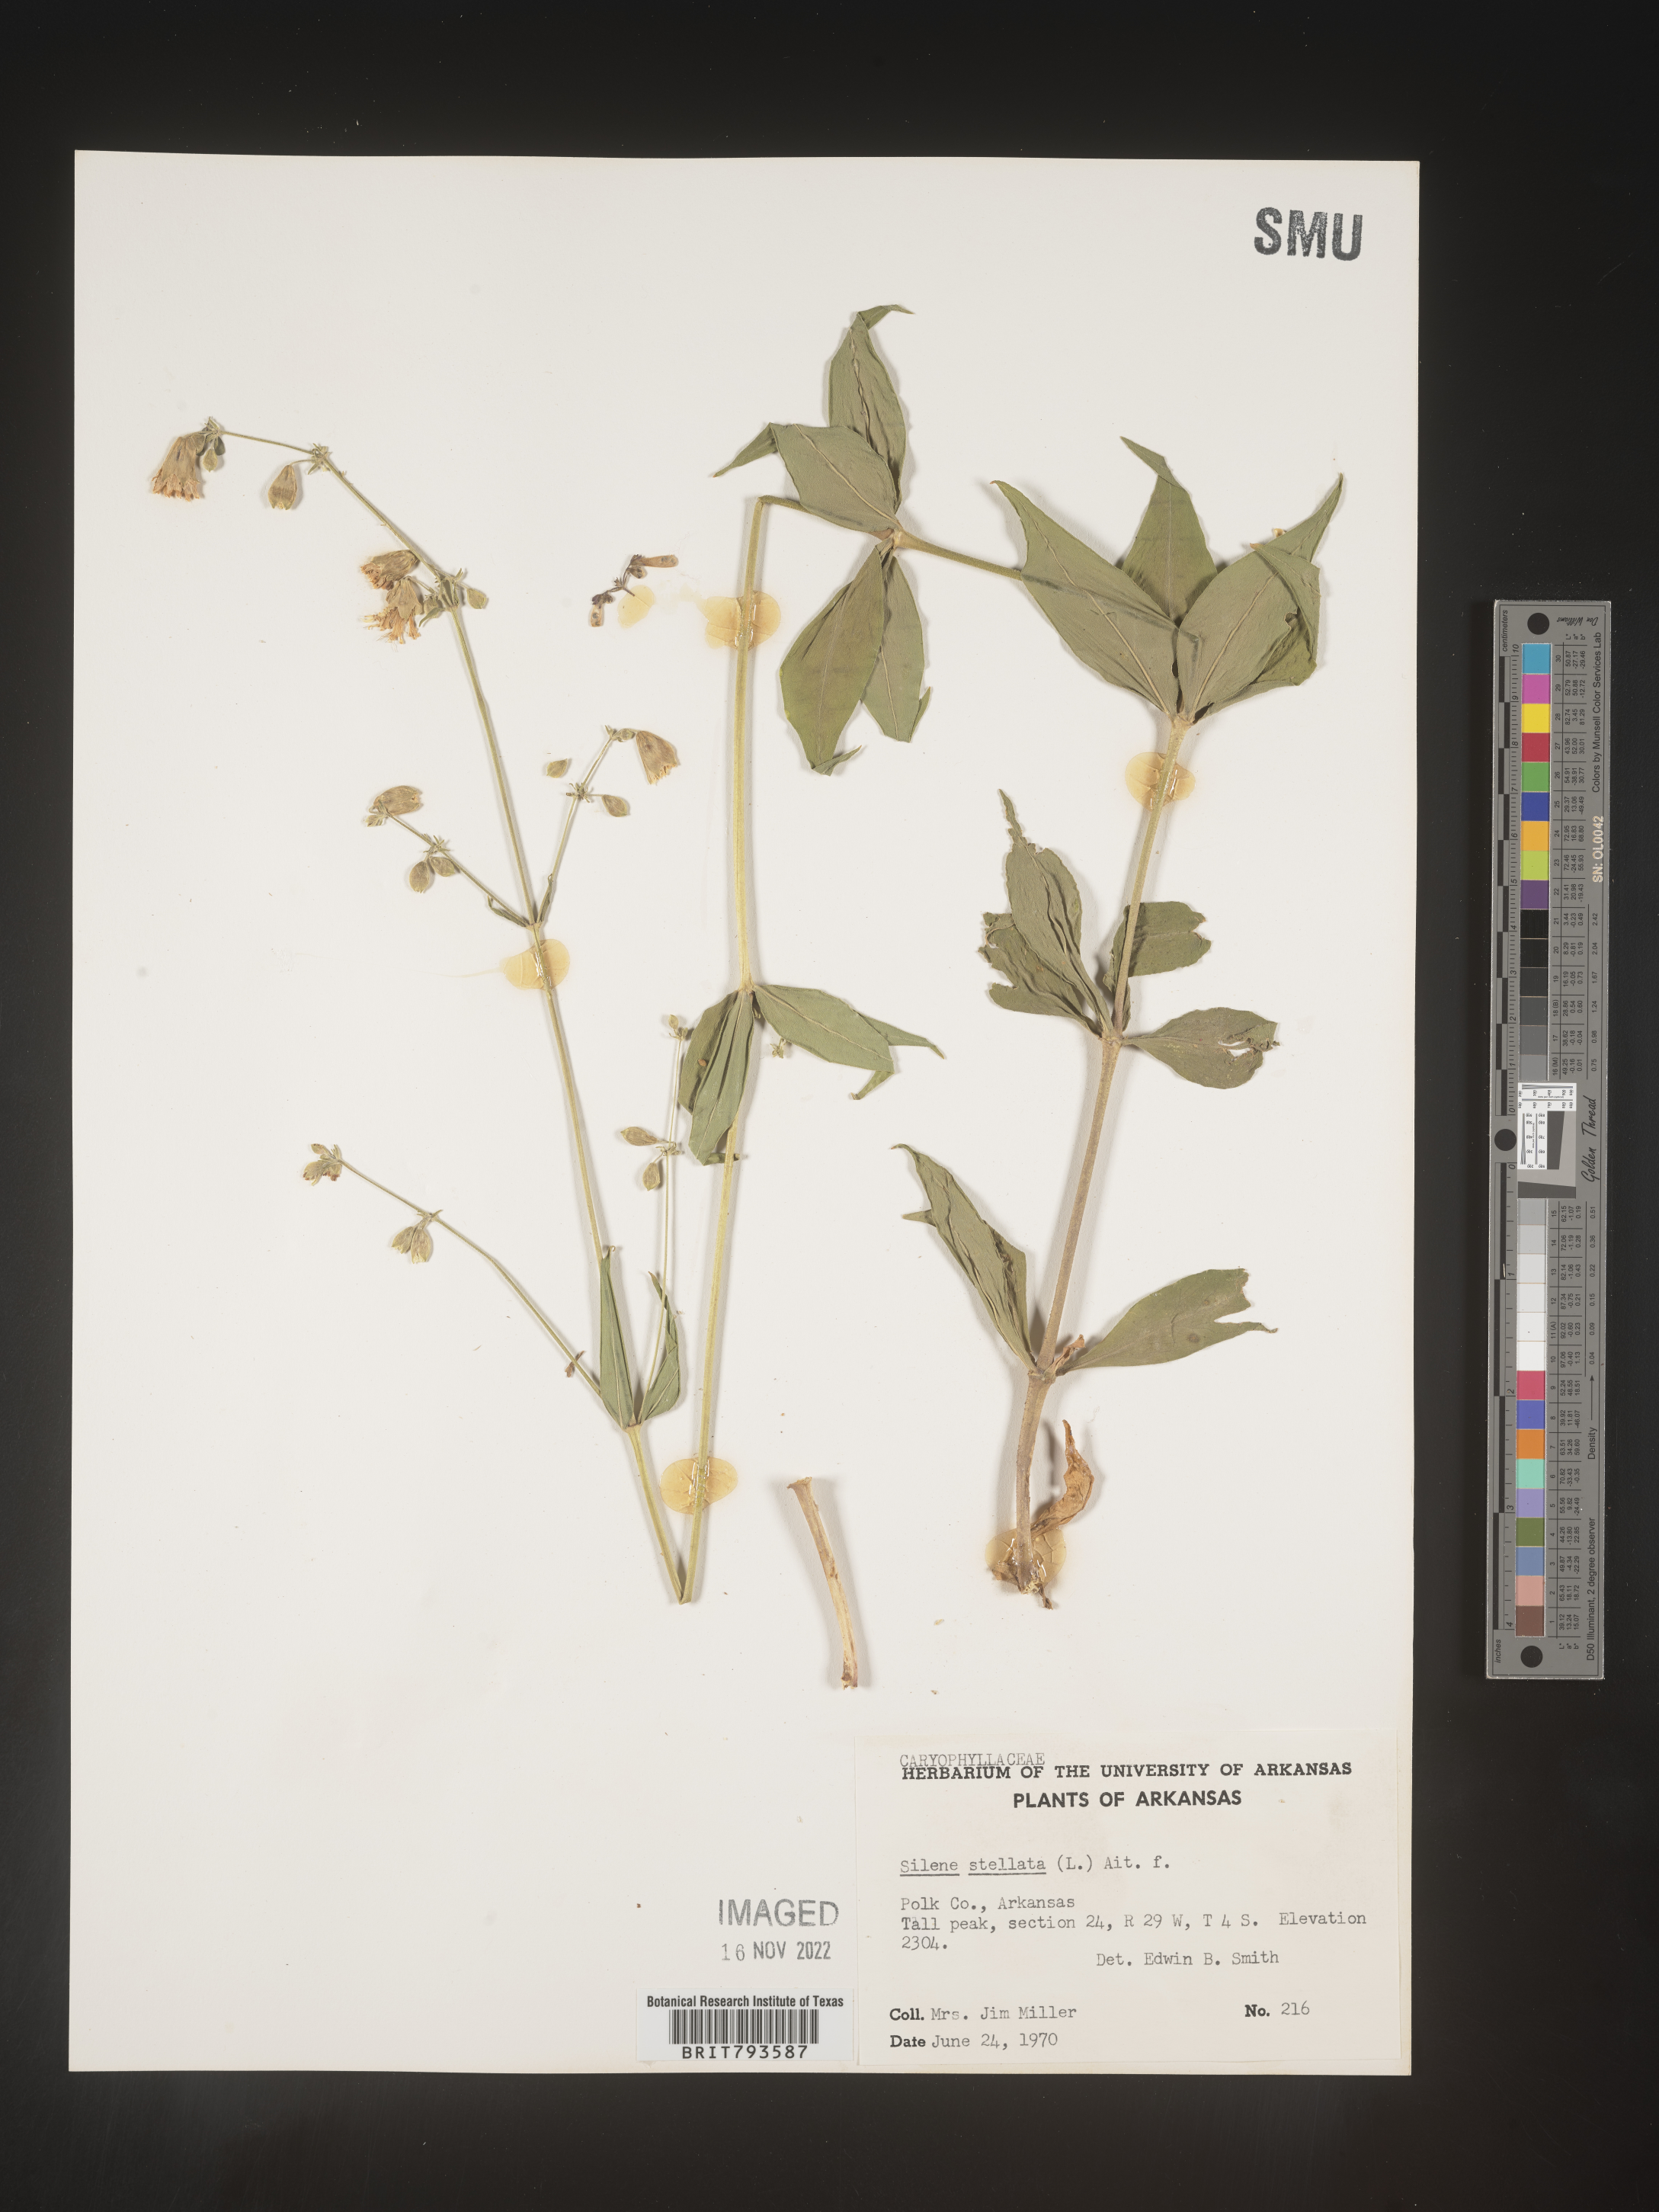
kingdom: Plantae
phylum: Tracheophyta
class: Magnoliopsida
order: Caryophyllales
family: Caryophyllaceae
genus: Silene
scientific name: Silene stellata
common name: Starry campion
